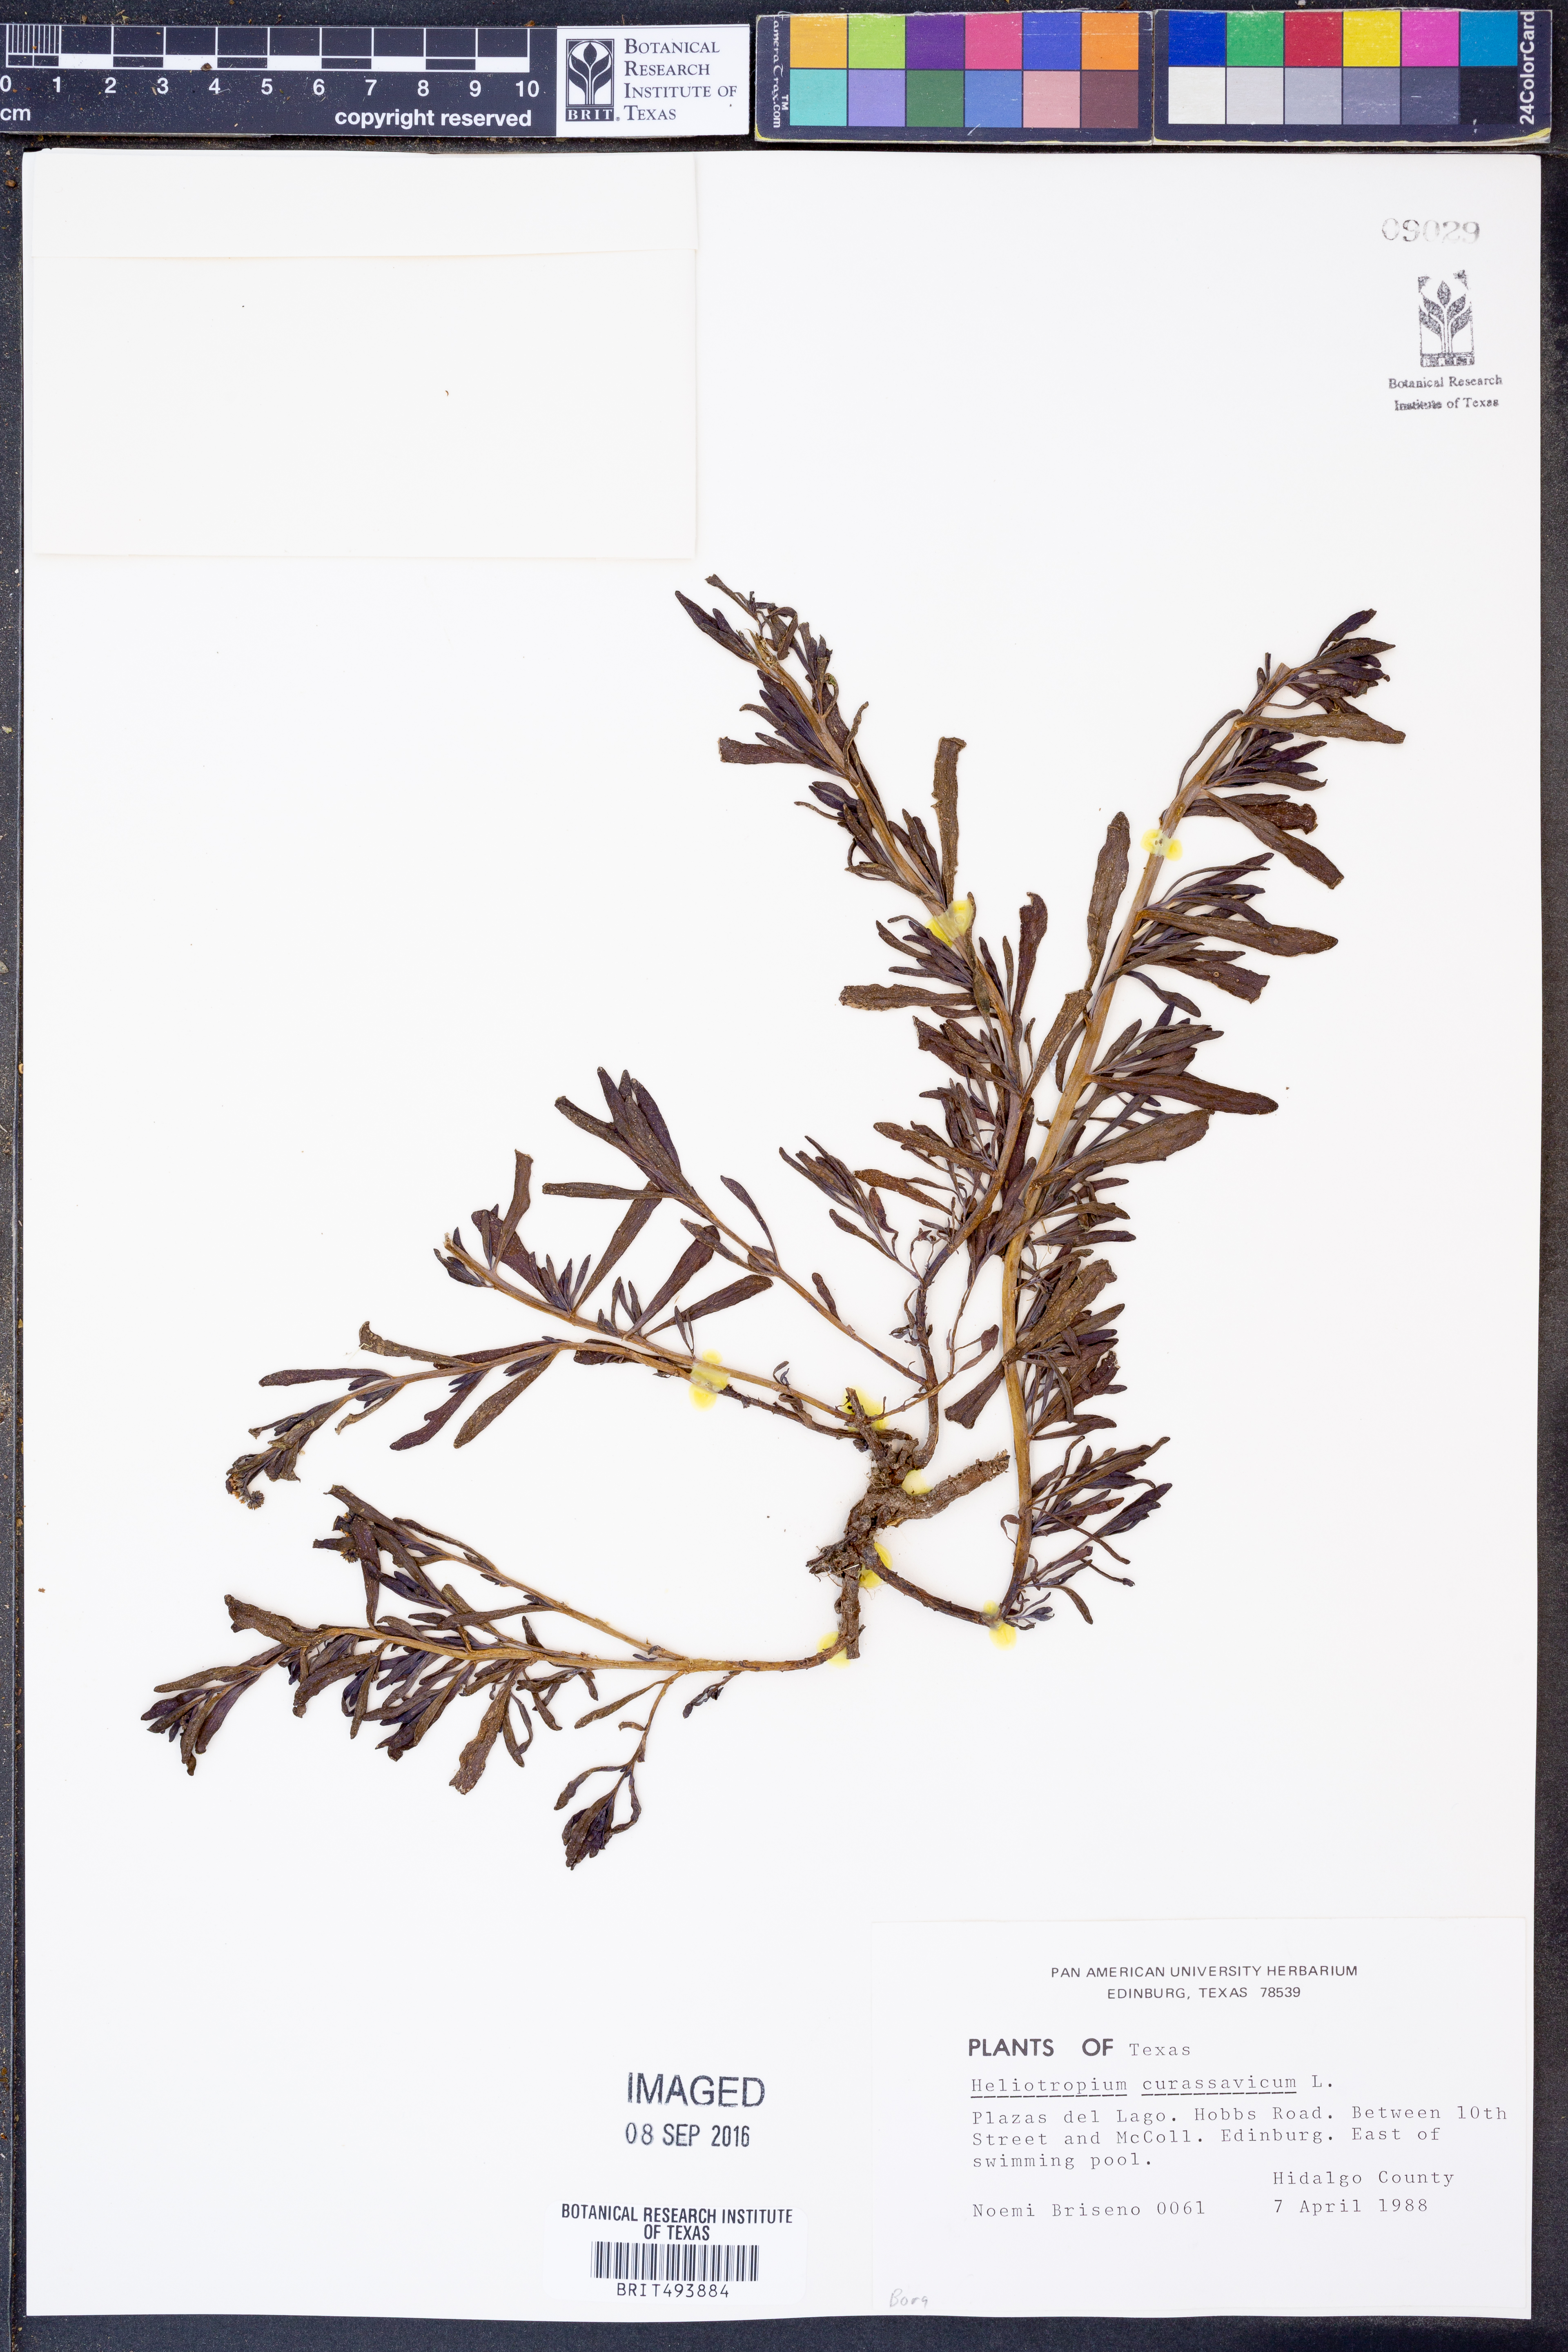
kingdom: Plantae
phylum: Tracheophyta
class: Magnoliopsida
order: Boraginales
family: Heliotropiaceae
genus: Heliotropium
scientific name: Heliotropium curassavicum
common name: Seaside heliotrope
